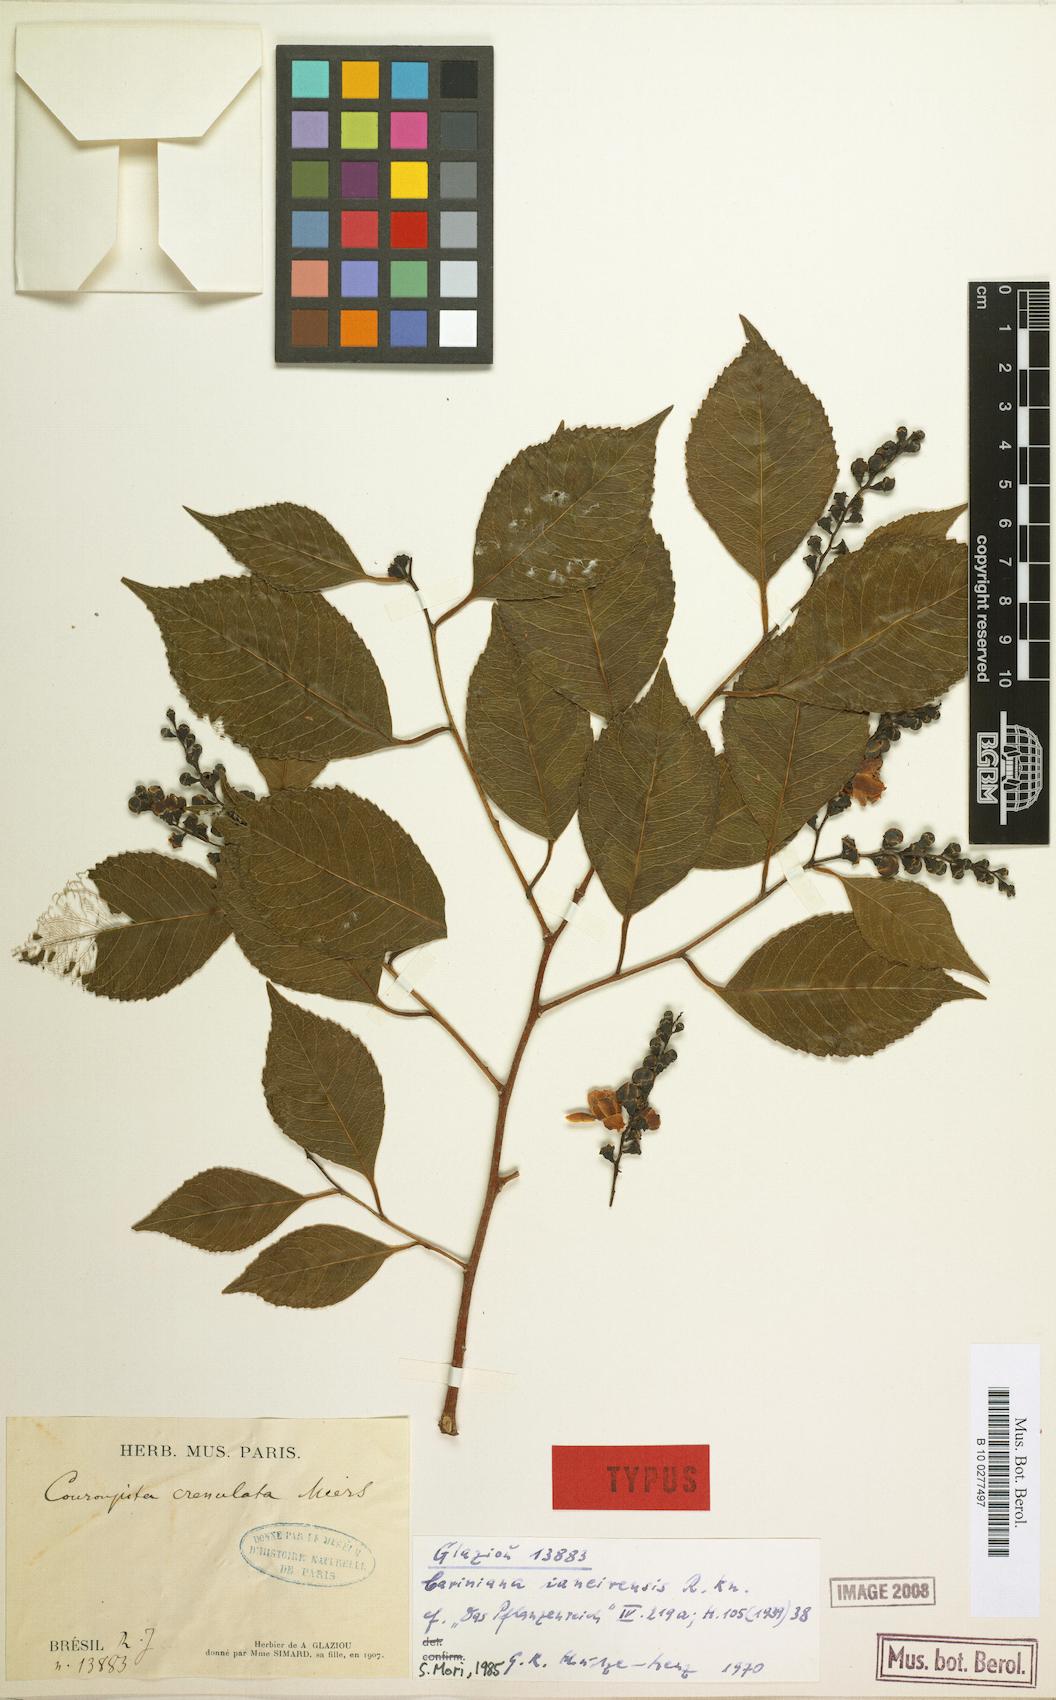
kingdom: Plantae
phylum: Tracheophyta
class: Magnoliopsida
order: Ericales
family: Lecythidaceae
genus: Cariniana
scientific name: Cariniana ianeirensis
